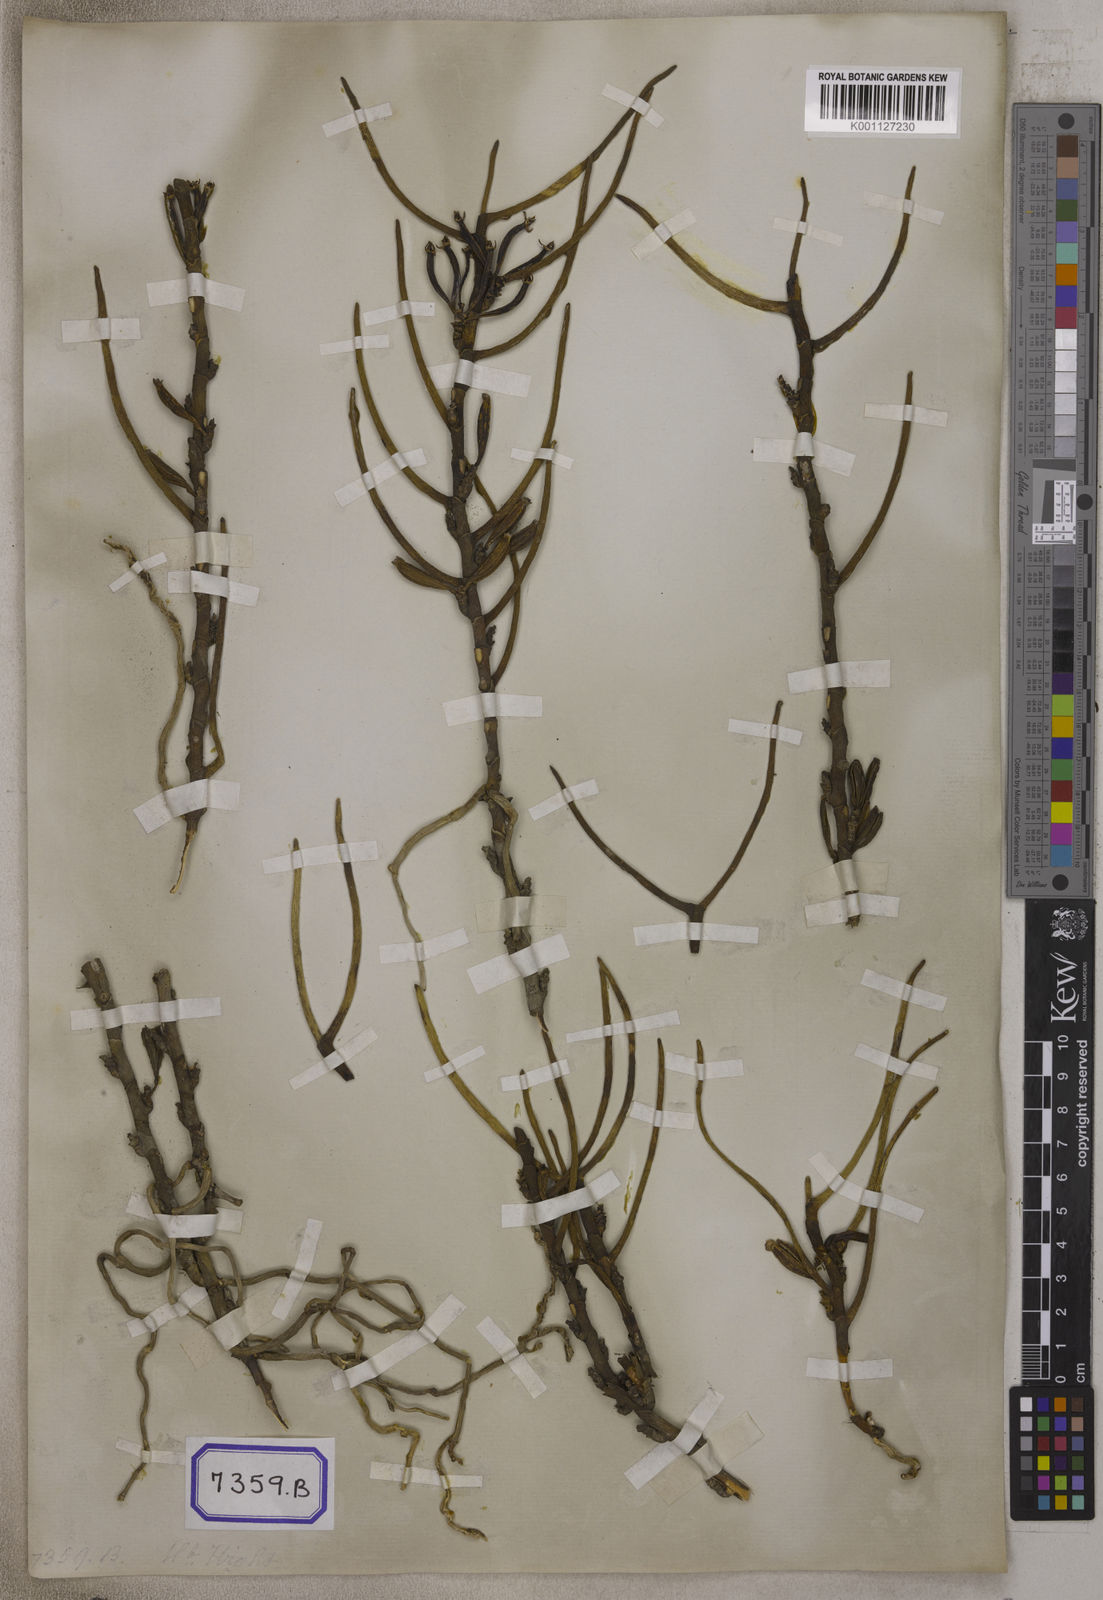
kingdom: Plantae
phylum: Tracheophyta
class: Liliopsida
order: Asparagales
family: Orchidaceae
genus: Luisia
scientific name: Luisia tristis
